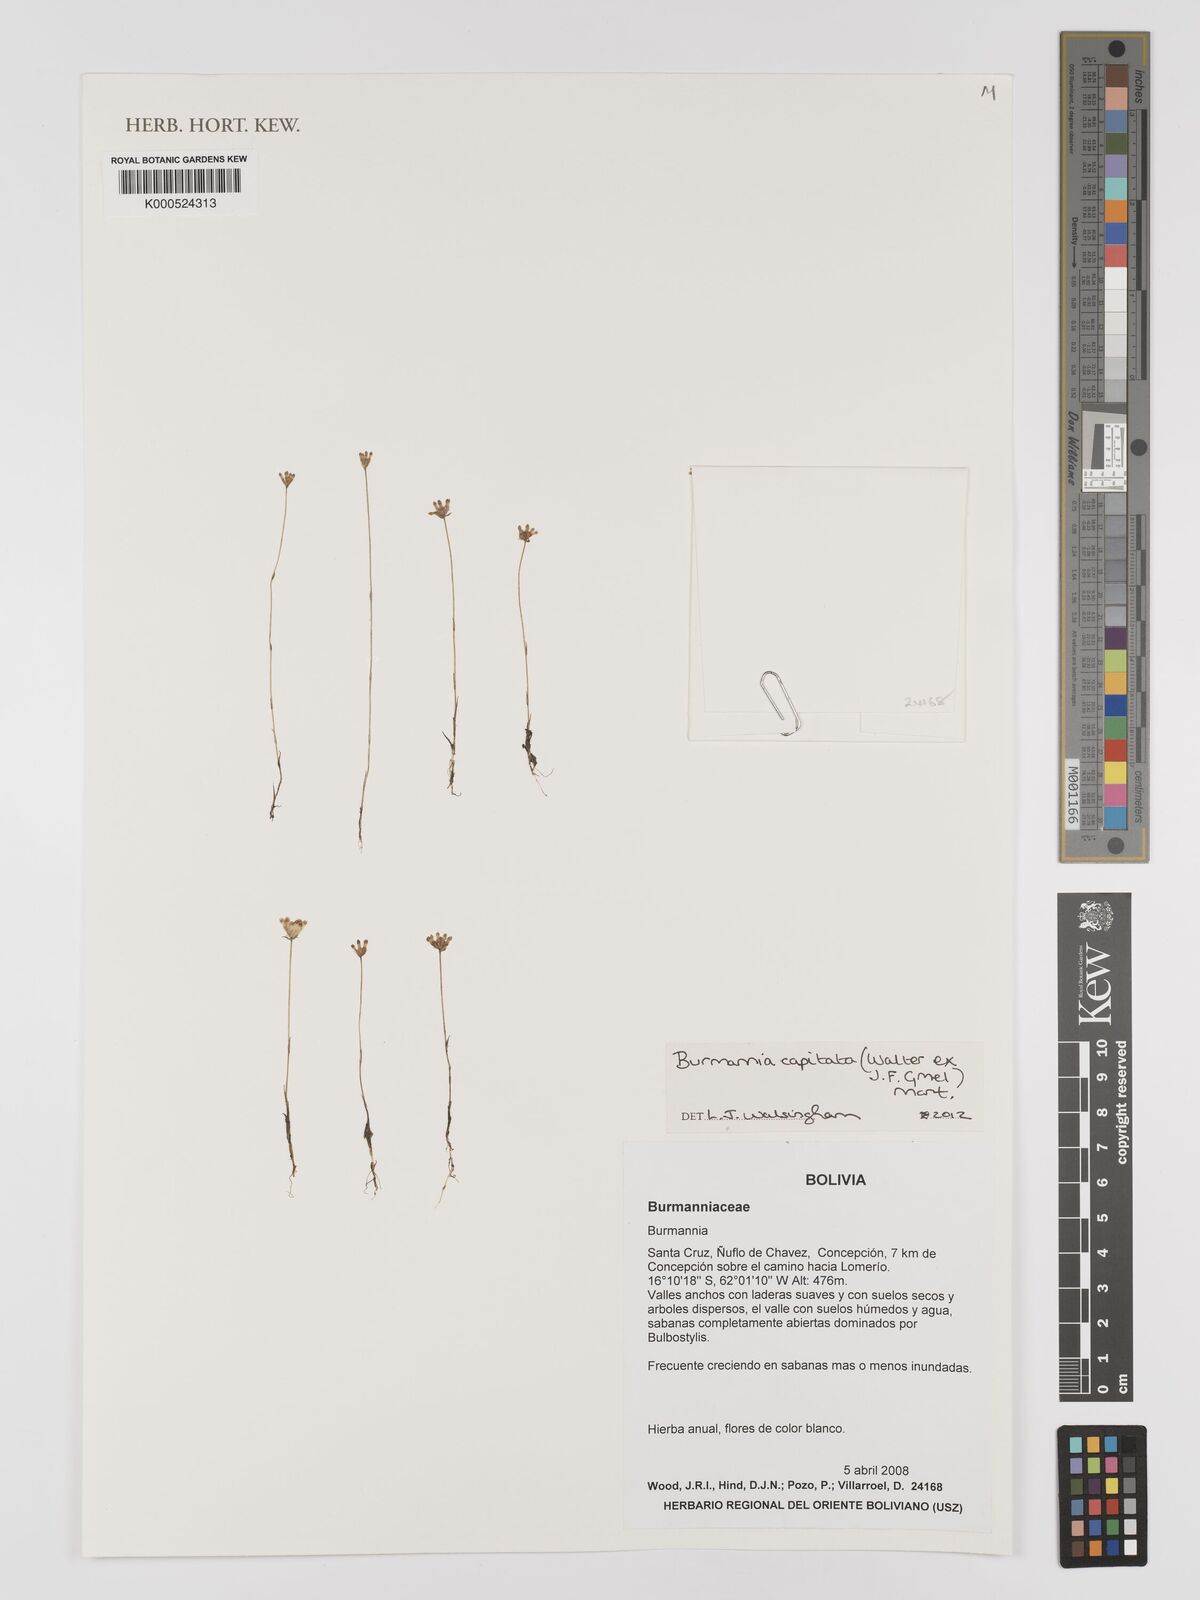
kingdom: Plantae
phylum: Tracheophyta
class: Liliopsida
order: Dioscoreales
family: Burmanniaceae
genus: Burmannia
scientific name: Burmannia capitata
